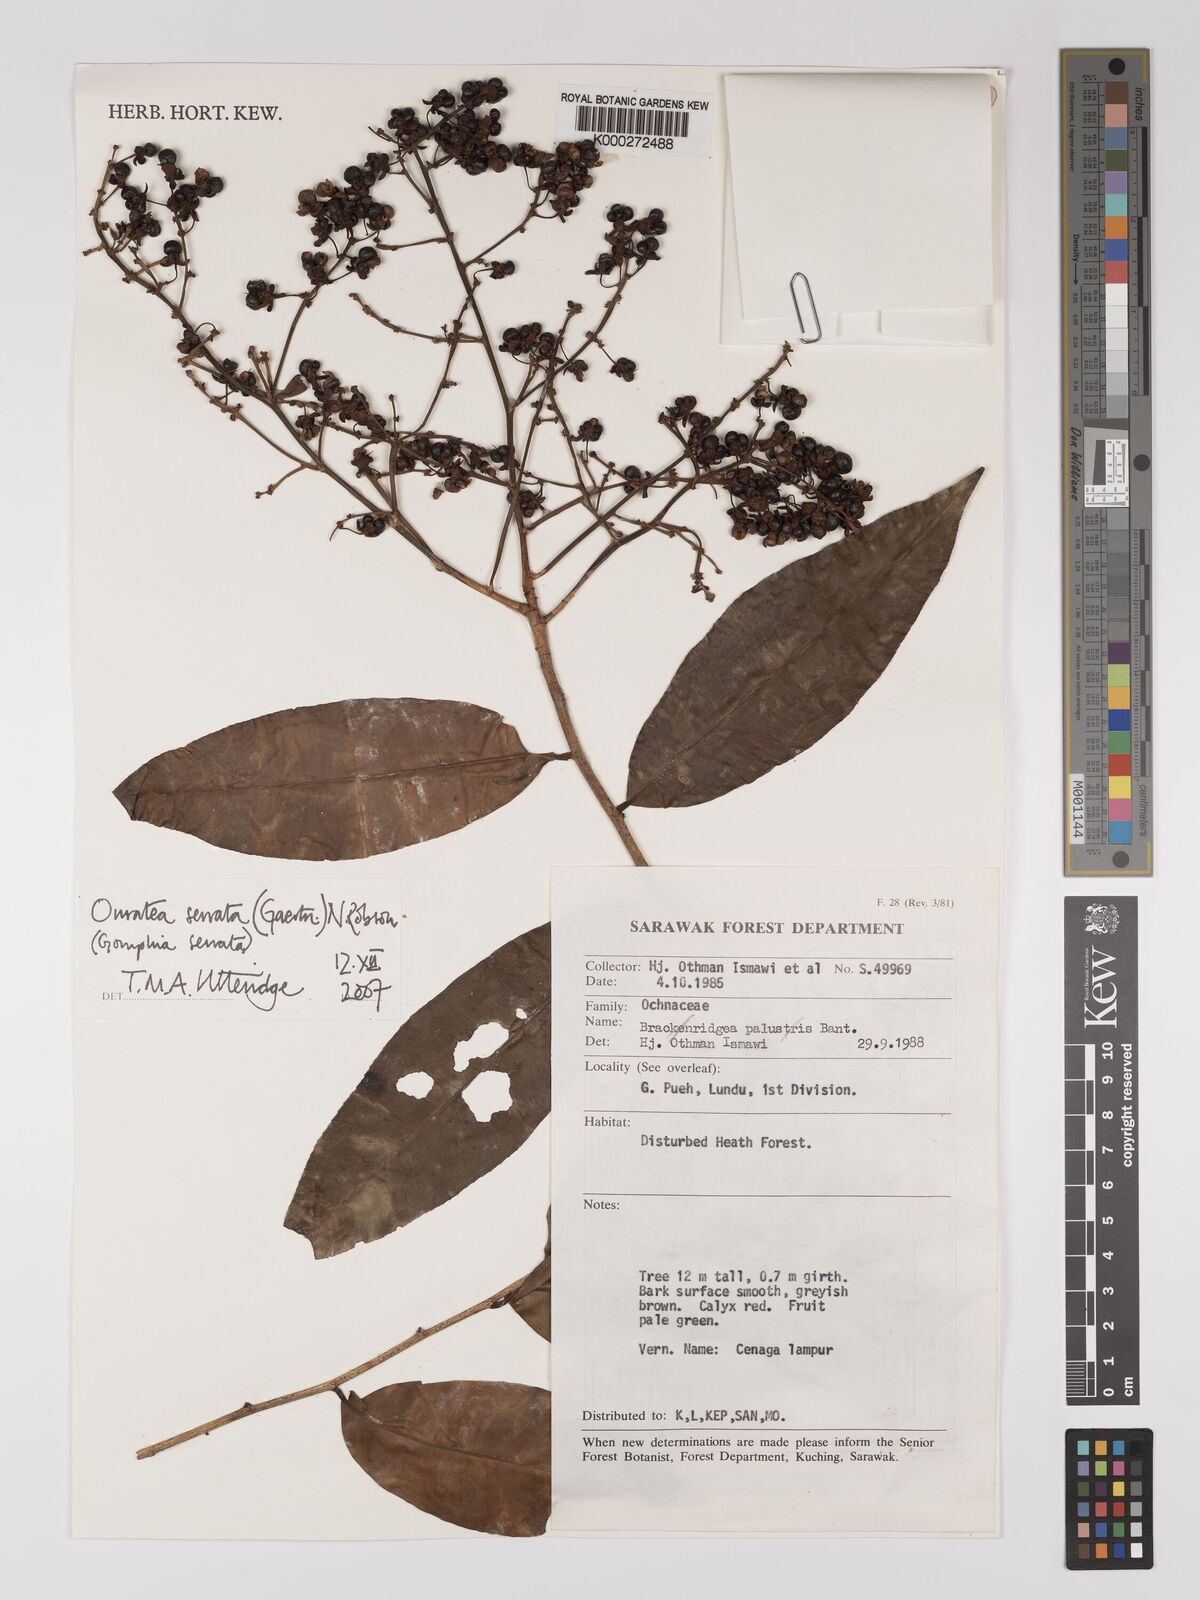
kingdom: Plantae
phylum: Tracheophyta
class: Magnoliopsida
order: Malpighiales
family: Ochnaceae
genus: Gomphia
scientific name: Gomphia serrata
